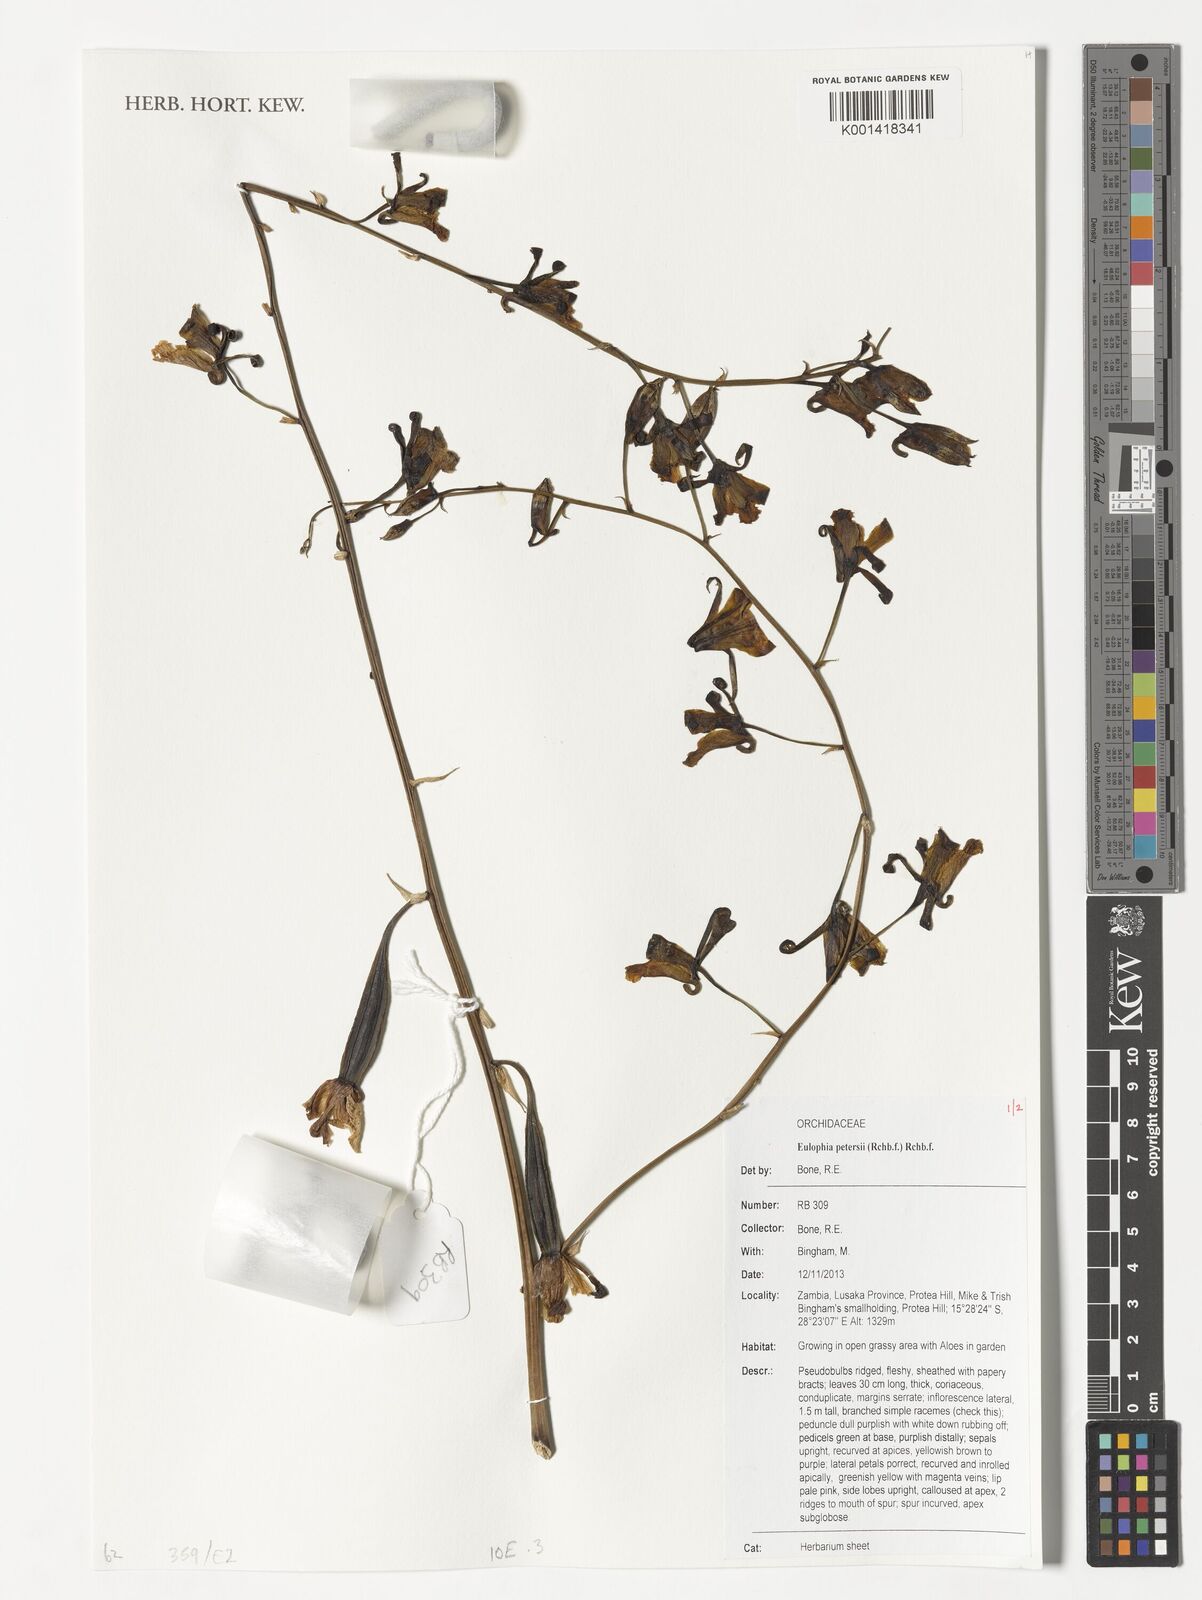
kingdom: Plantae
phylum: Tracheophyta
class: Liliopsida
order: Asparagales
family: Orchidaceae
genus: Eulophia
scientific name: Eulophia petersii
